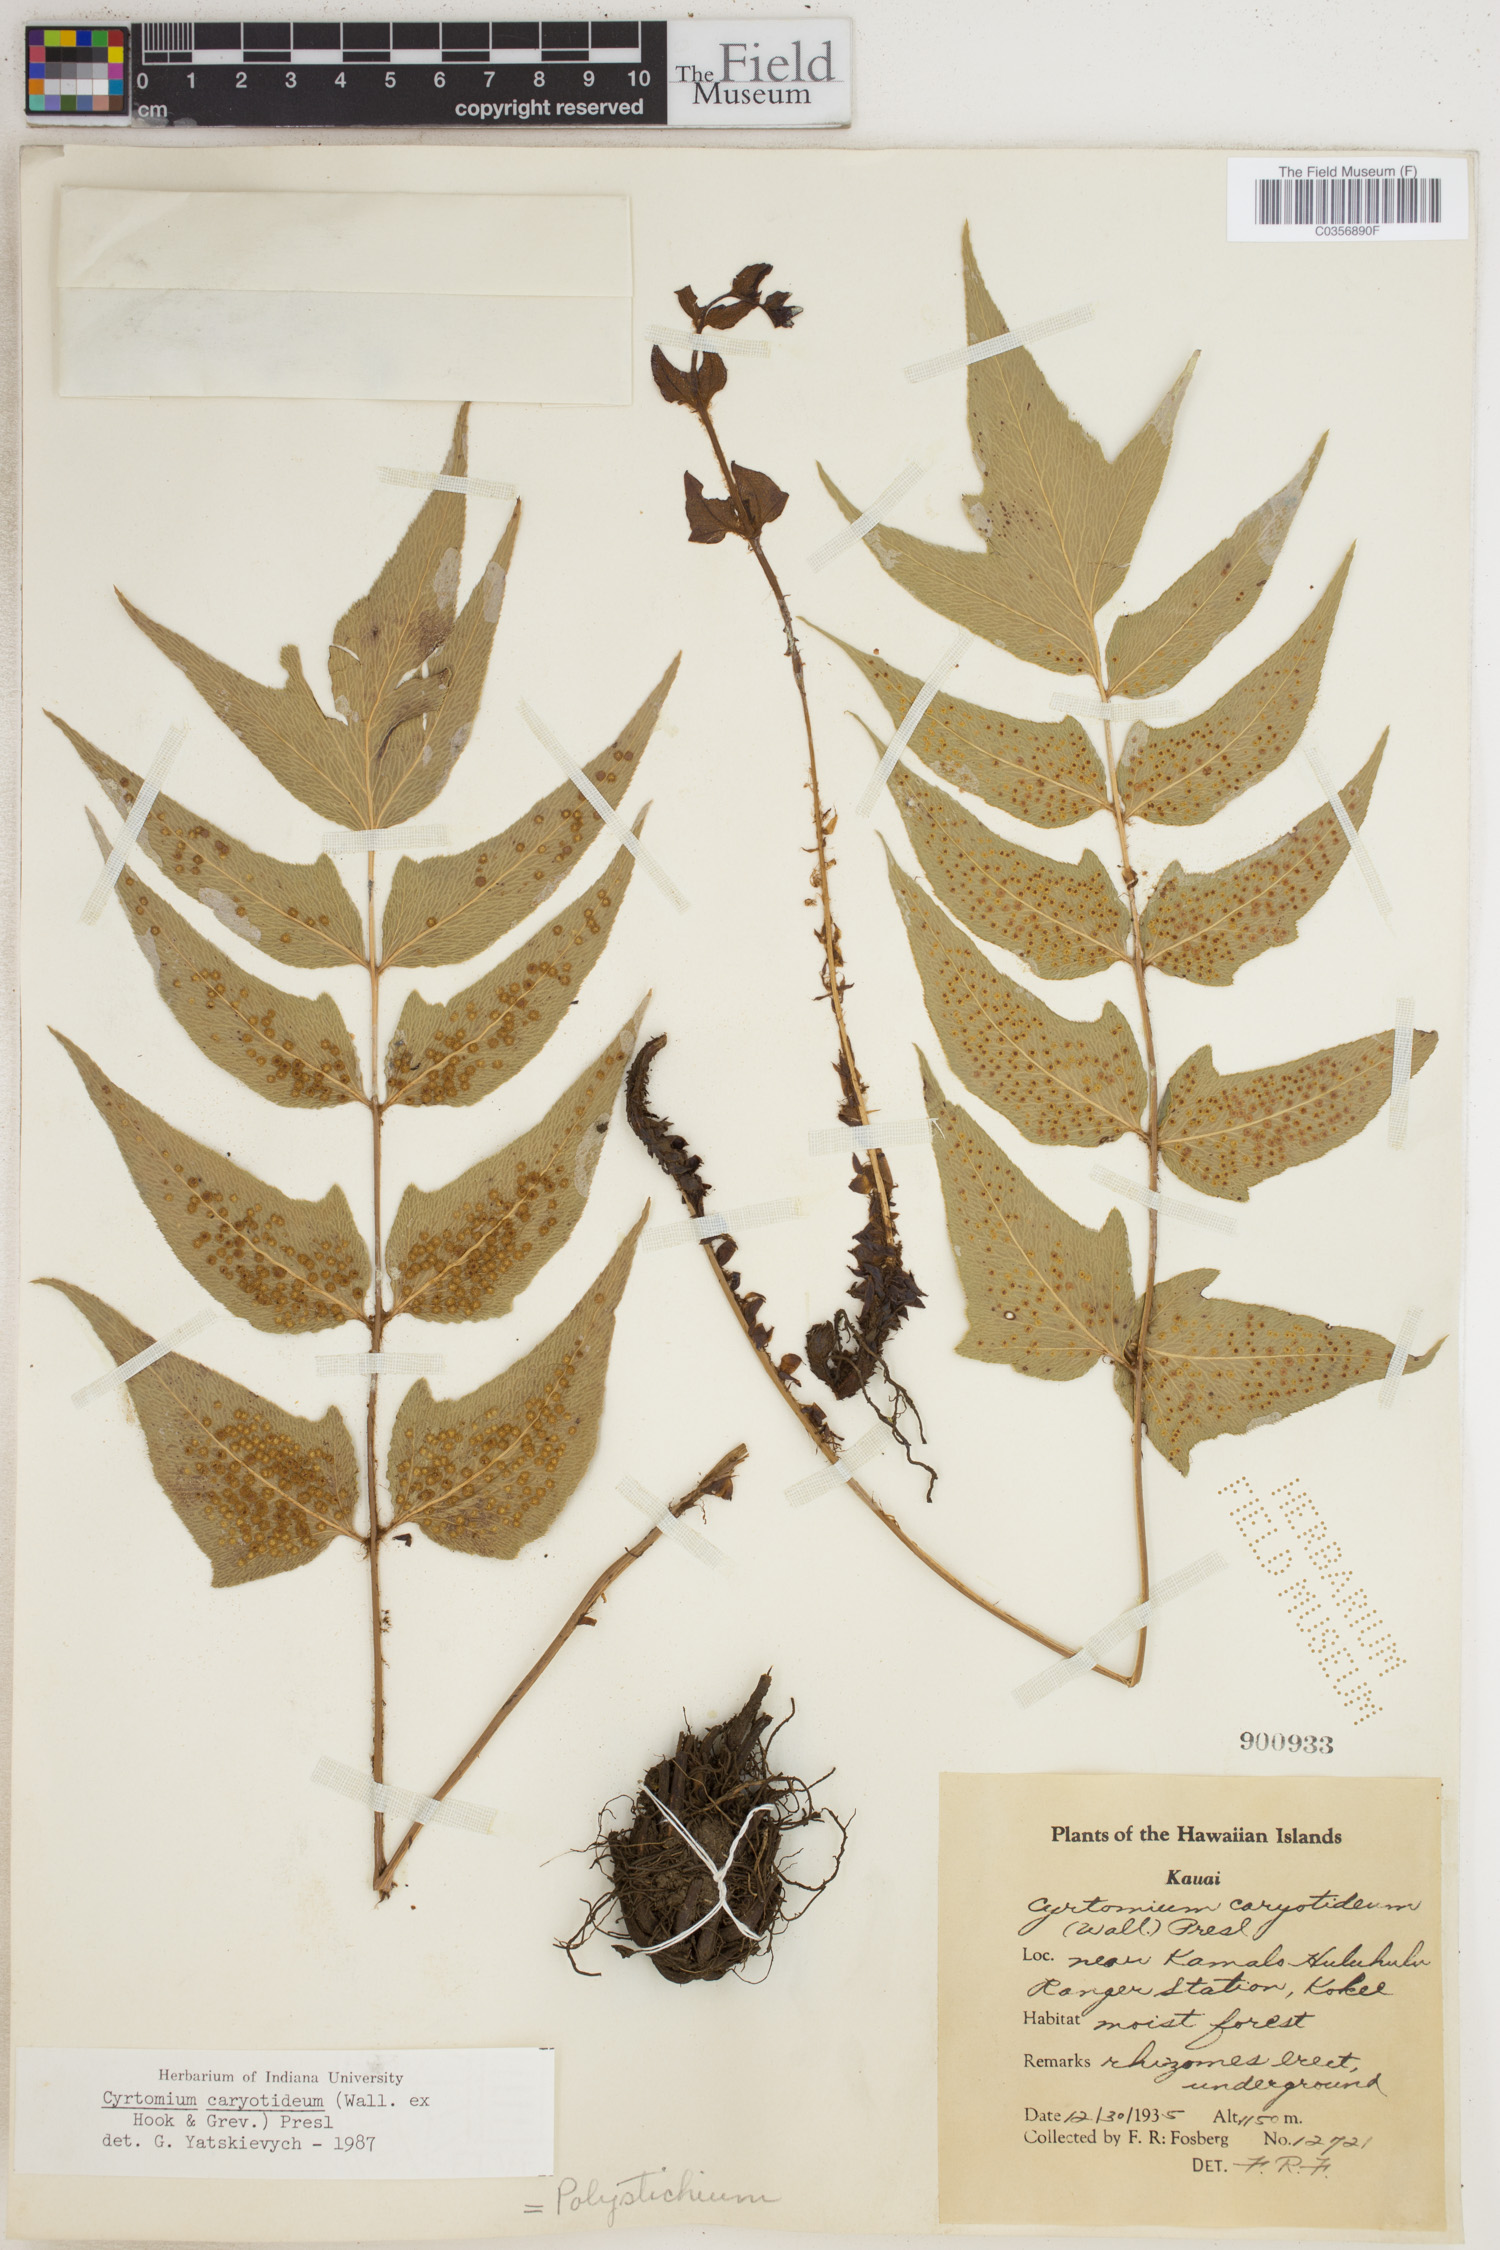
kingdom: Plantae
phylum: Tracheophyta
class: Polypodiopsida
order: Polypodiales
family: Dryopteridaceae
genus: Cyrtomium
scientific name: Cyrtomium caryotideum
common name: Asiatic holly fern
